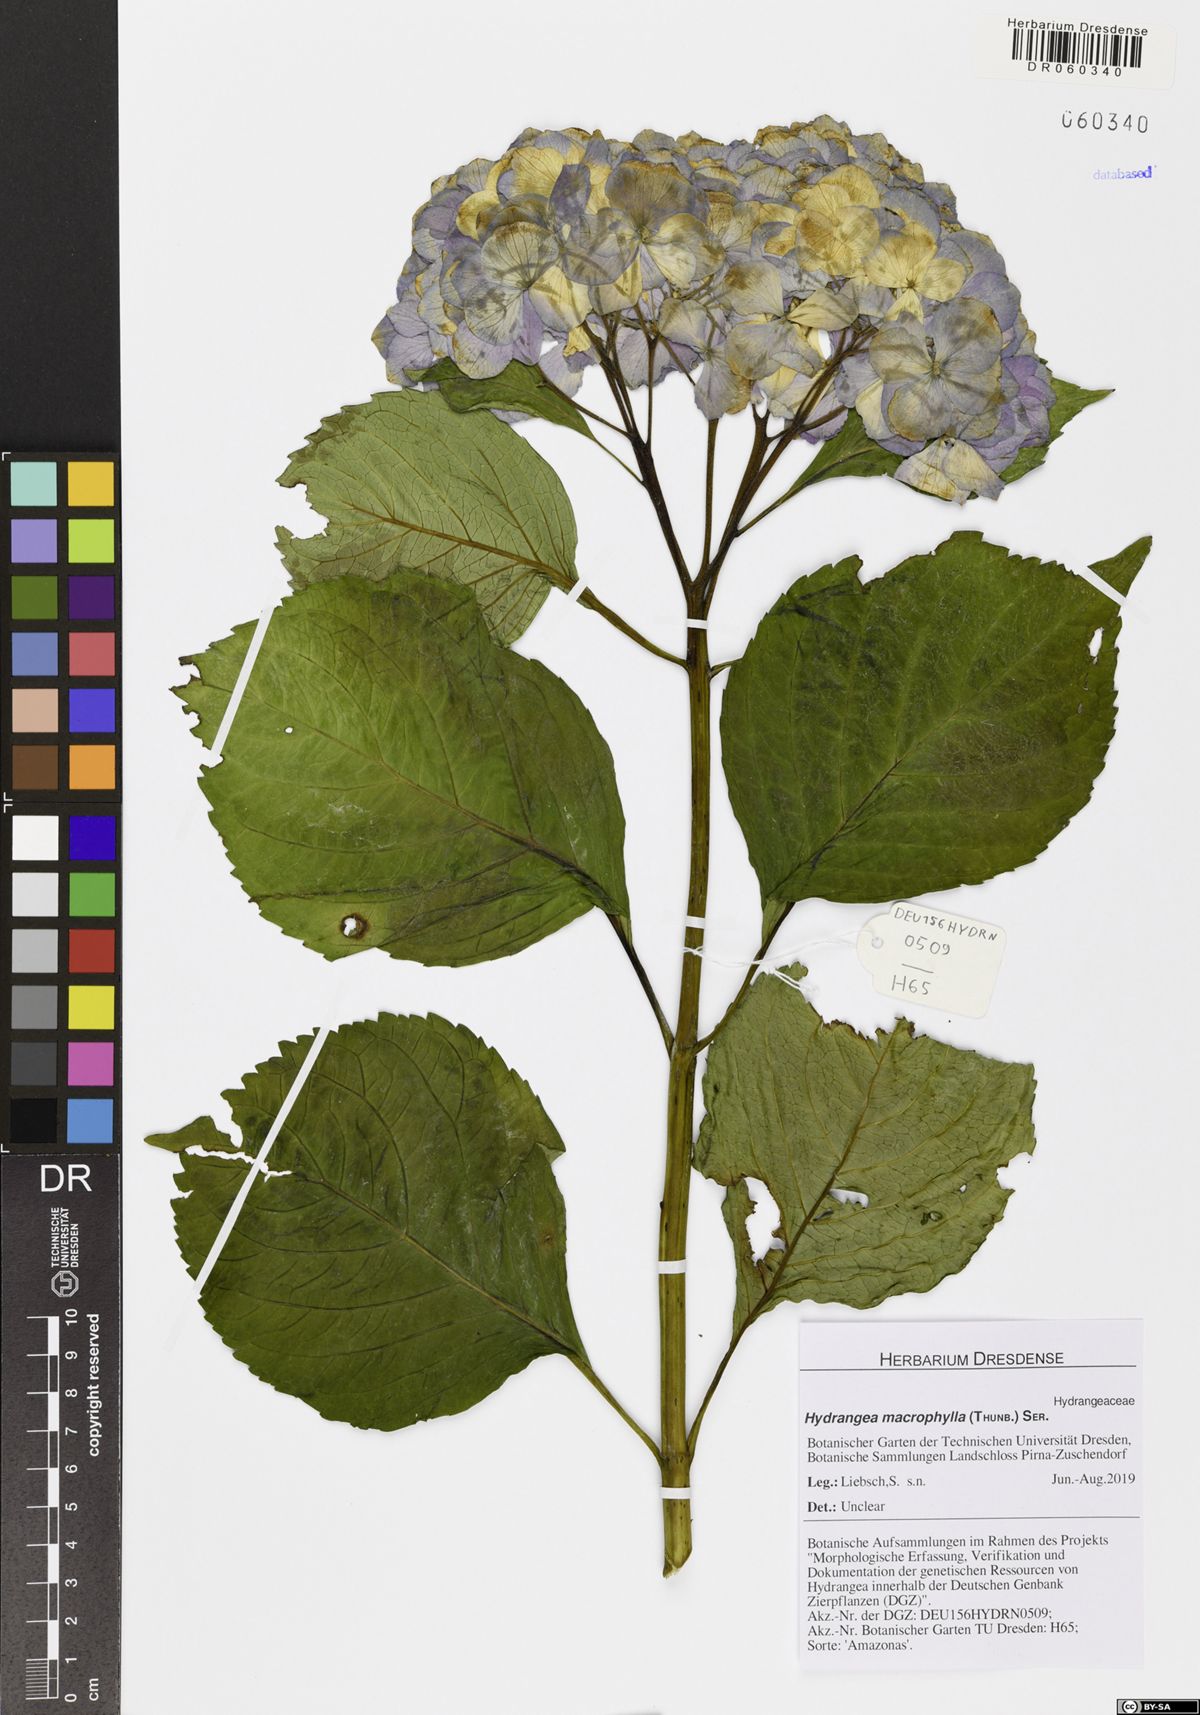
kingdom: Plantae
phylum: Tracheophyta
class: Magnoliopsida
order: Cornales
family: Hydrangeaceae
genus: Hydrangea
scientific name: Hydrangea macrophylla
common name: Hydrangea
